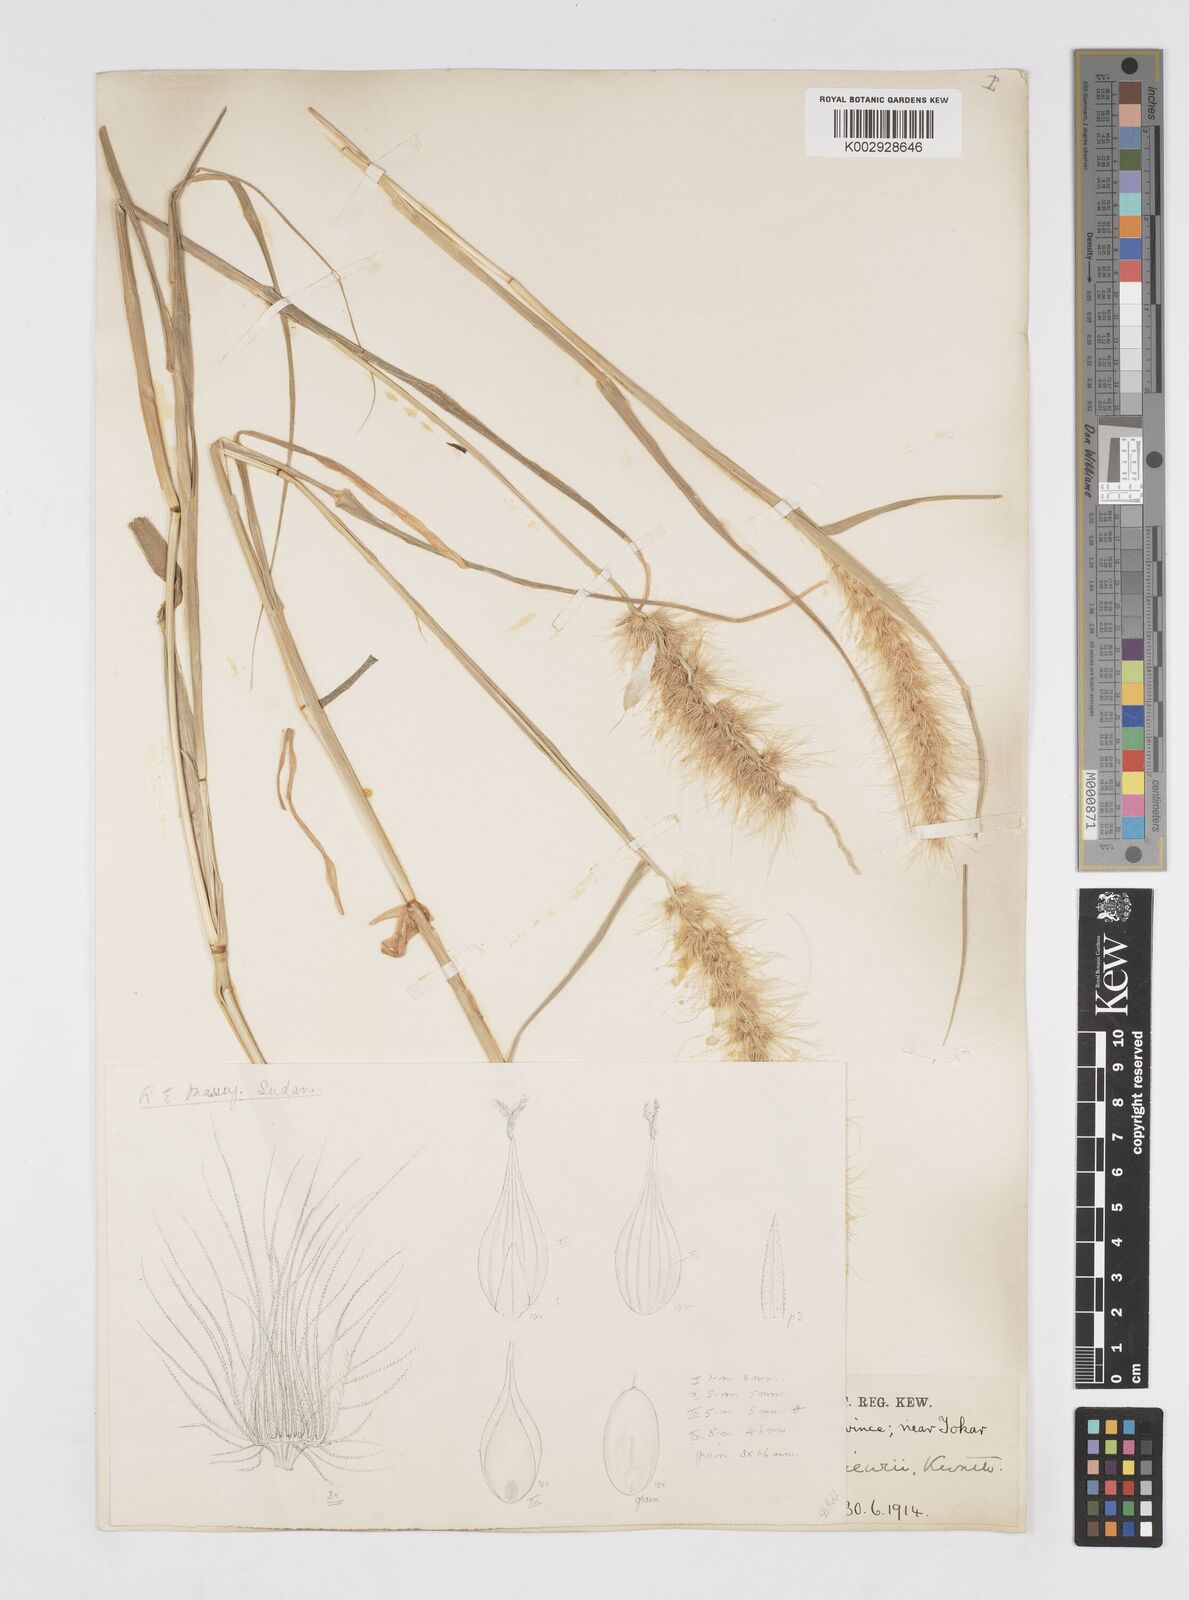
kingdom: Plantae
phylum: Tracheophyta
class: Liliopsida
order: Poales
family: Poaceae
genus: Cenchrus
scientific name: Cenchrus prieurii
